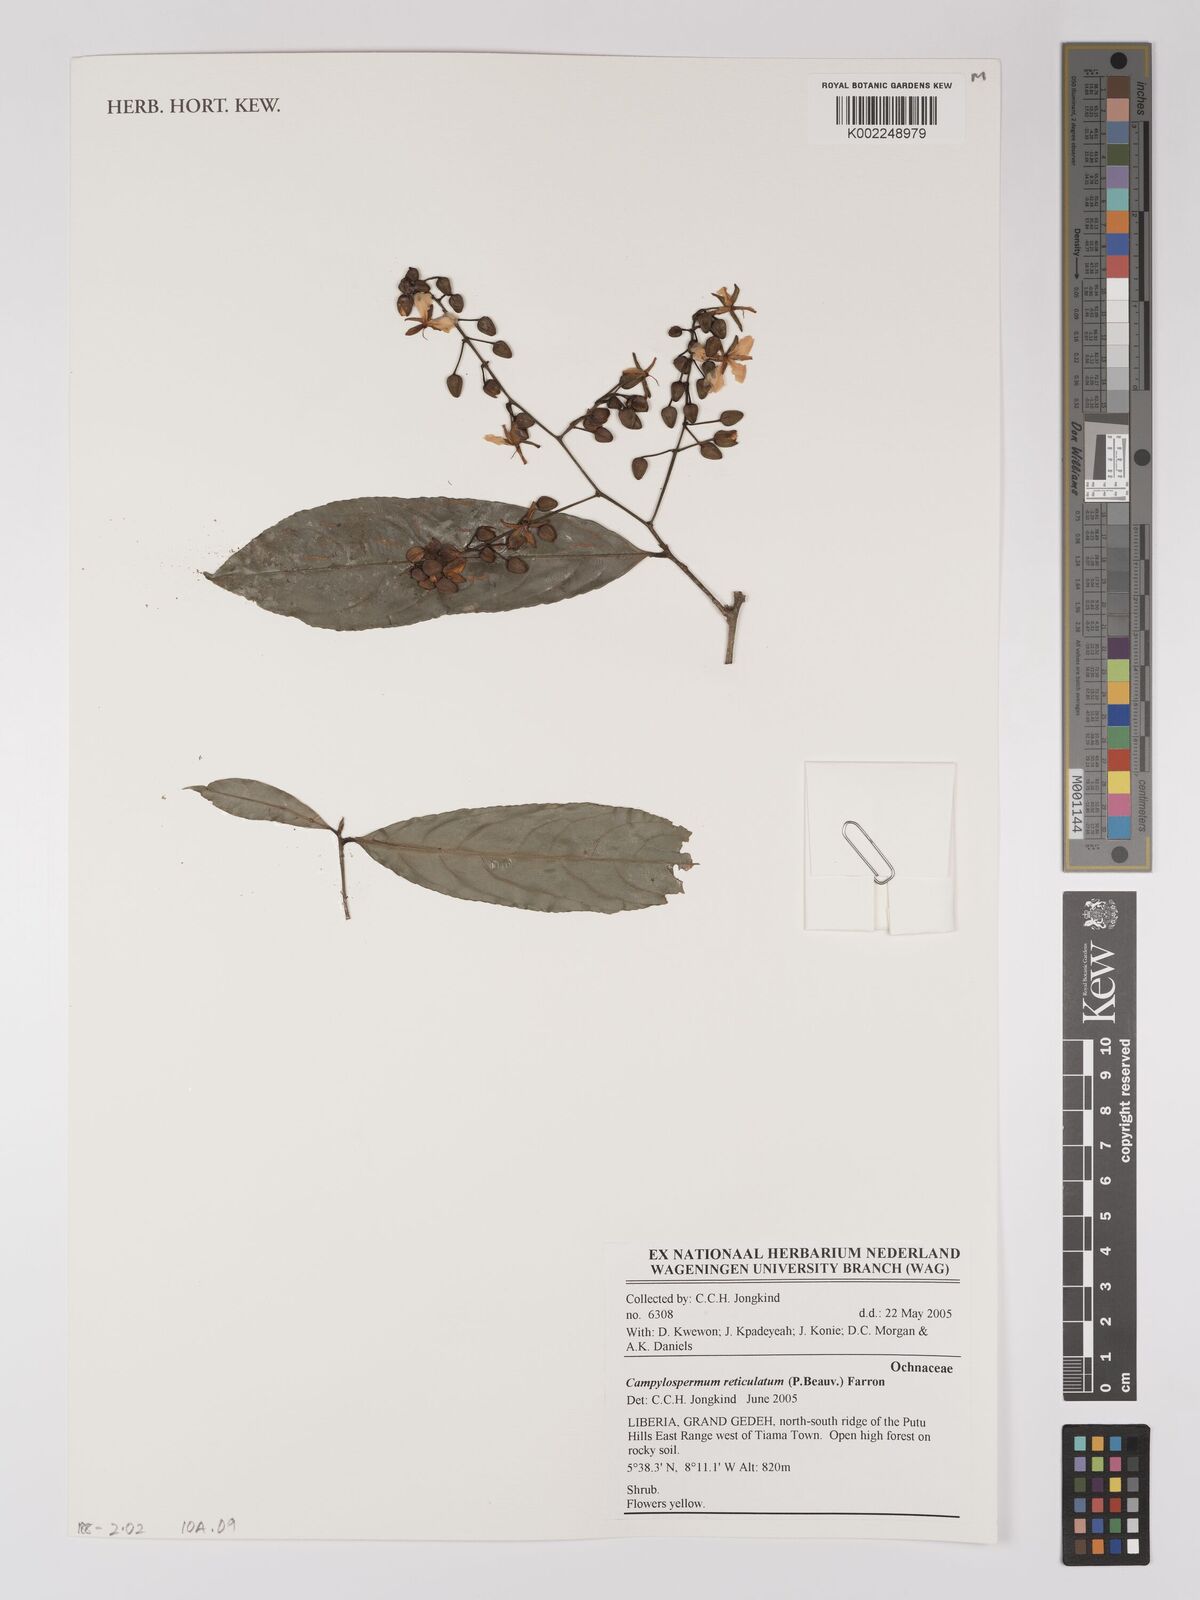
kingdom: Plantae
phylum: Tracheophyta
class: Magnoliopsida
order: Malpighiales
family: Ochnaceae
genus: Campylospermum
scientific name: Campylospermum reticulatum
